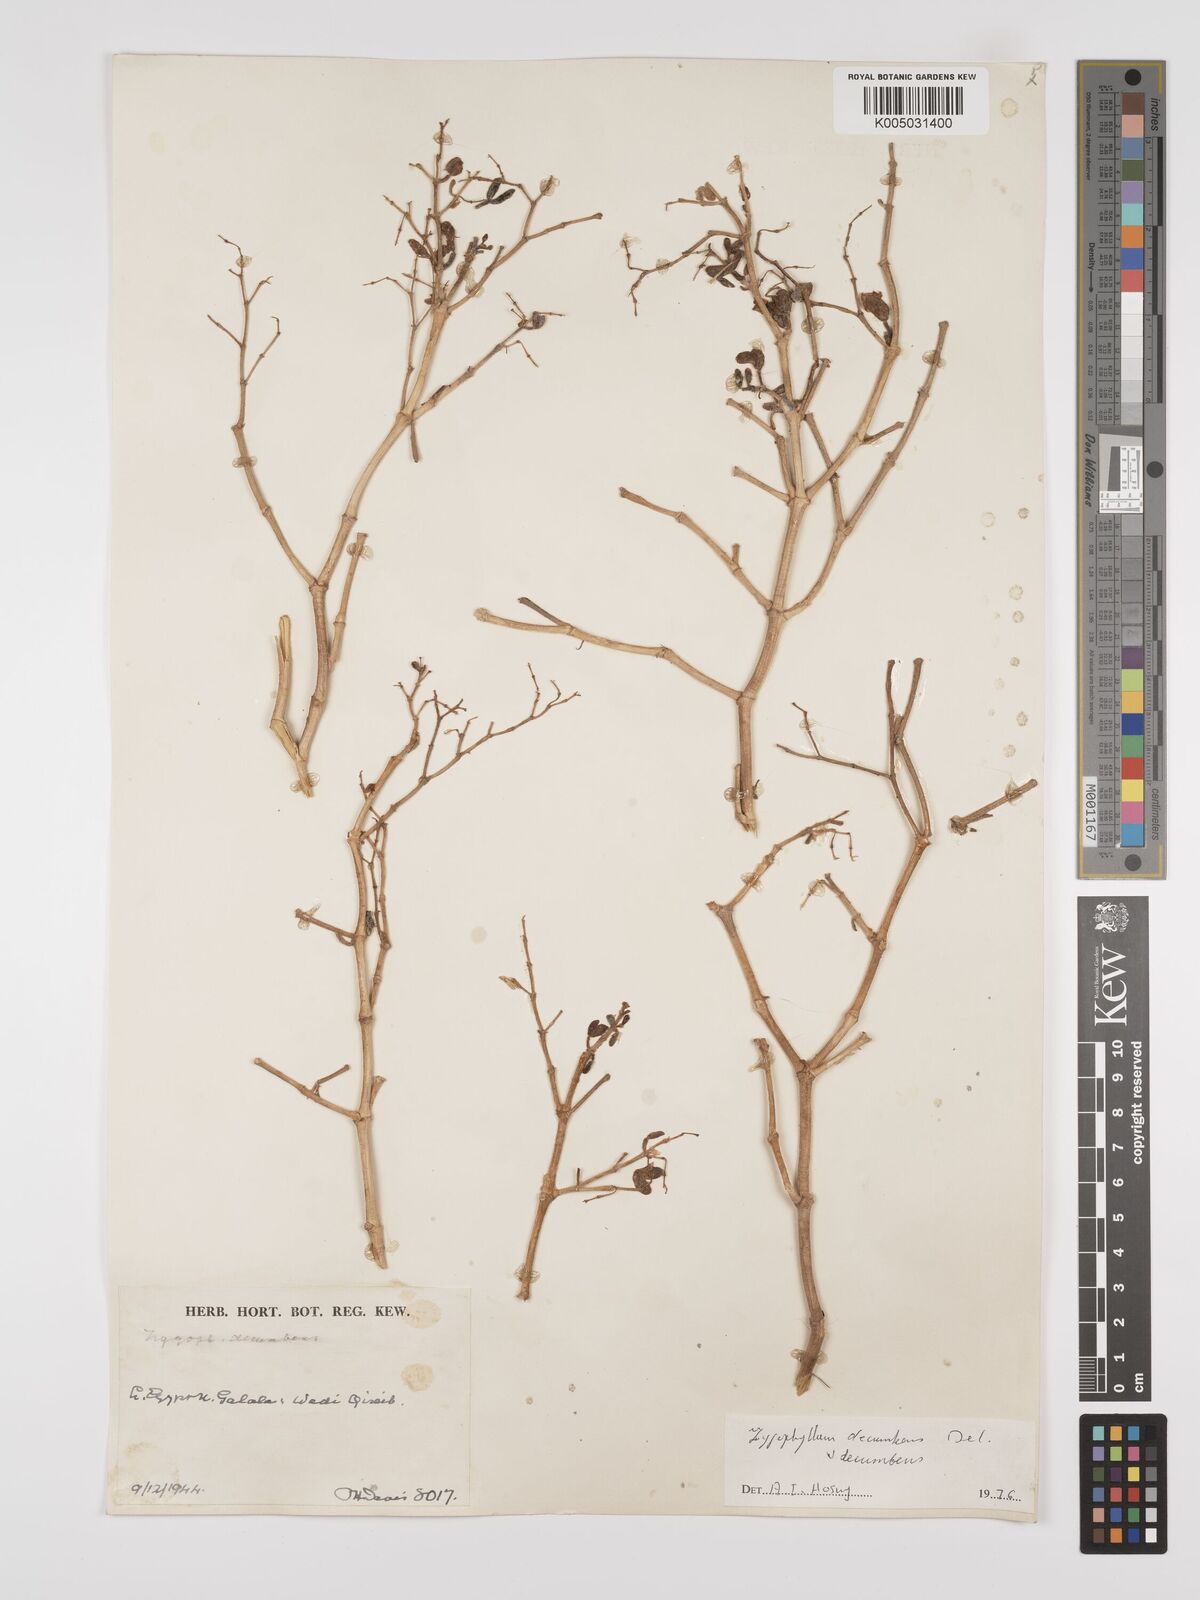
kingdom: Plantae
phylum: Tracheophyta
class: Magnoliopsida
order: Zygophyllales
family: Zygophyllaceae
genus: Tetraena
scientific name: Tetraena decumbens
